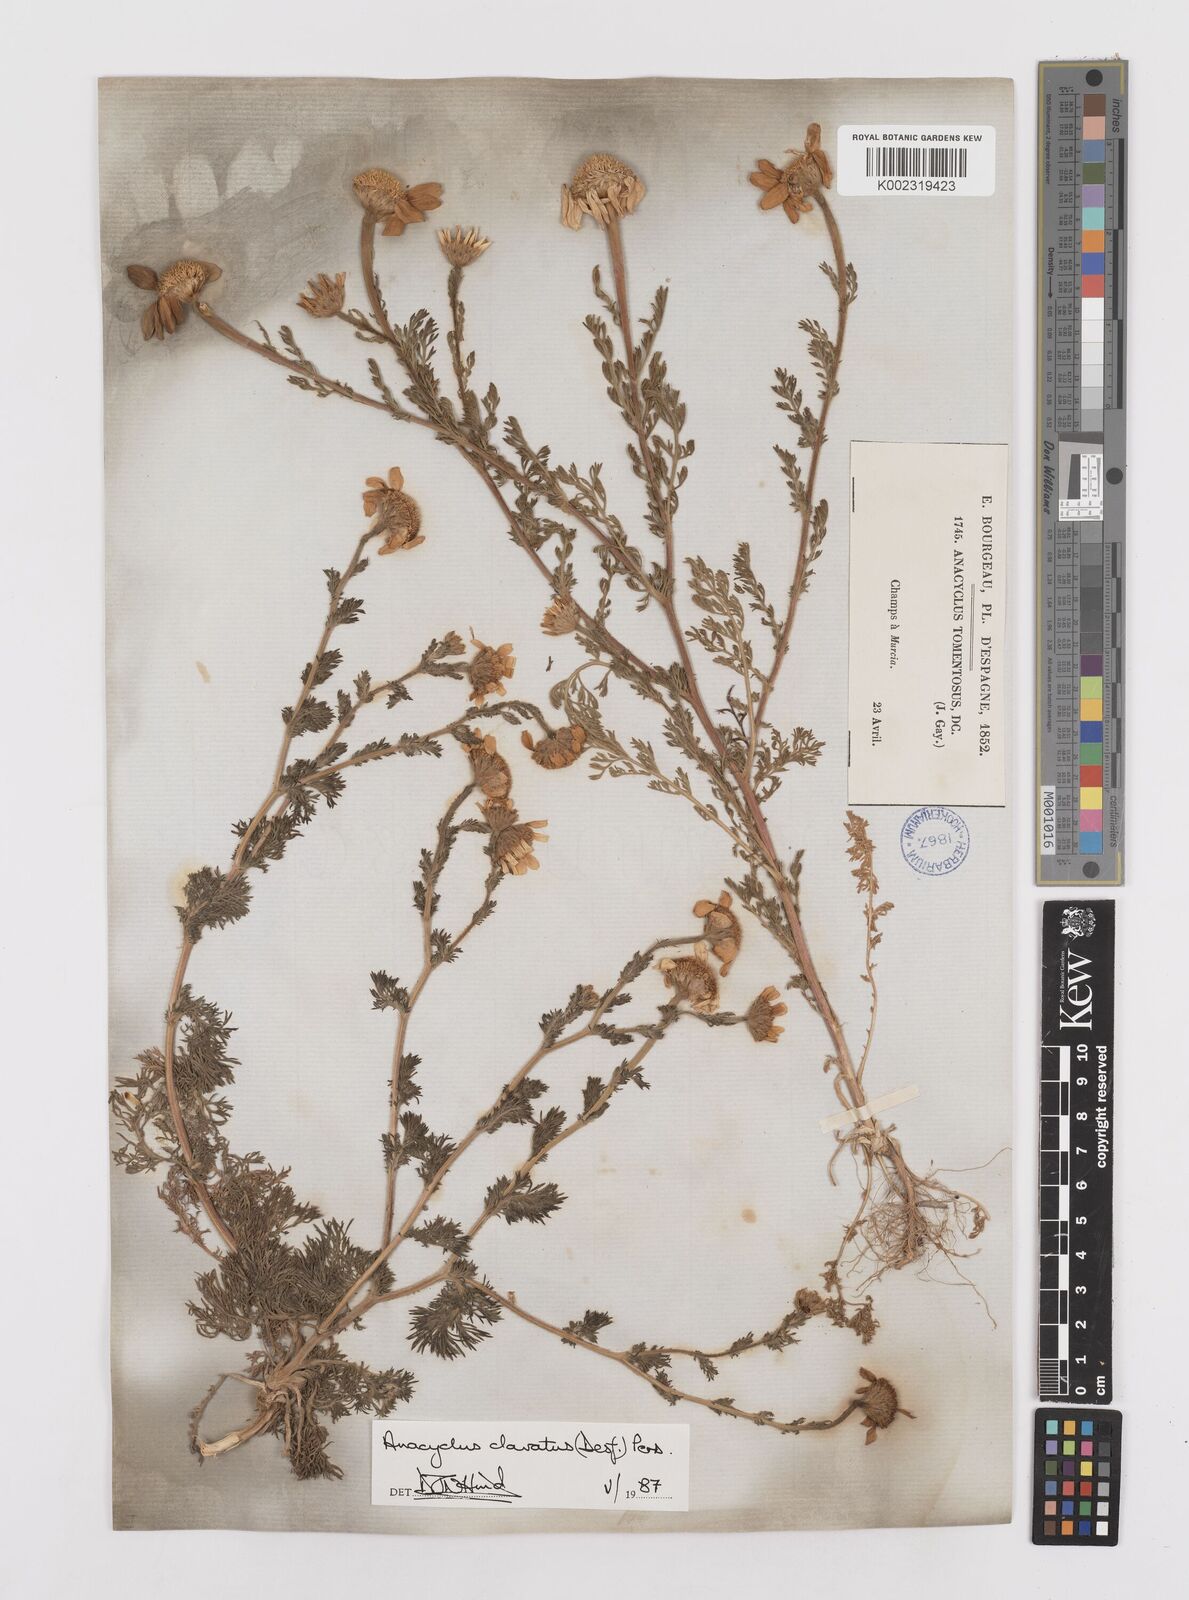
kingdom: Plantae
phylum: Tracheophyta
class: Magnoliopsida
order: Asterales
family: Asteraceae
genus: Anacyclus
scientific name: Anacyclus clavatus
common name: Whitebuttons
